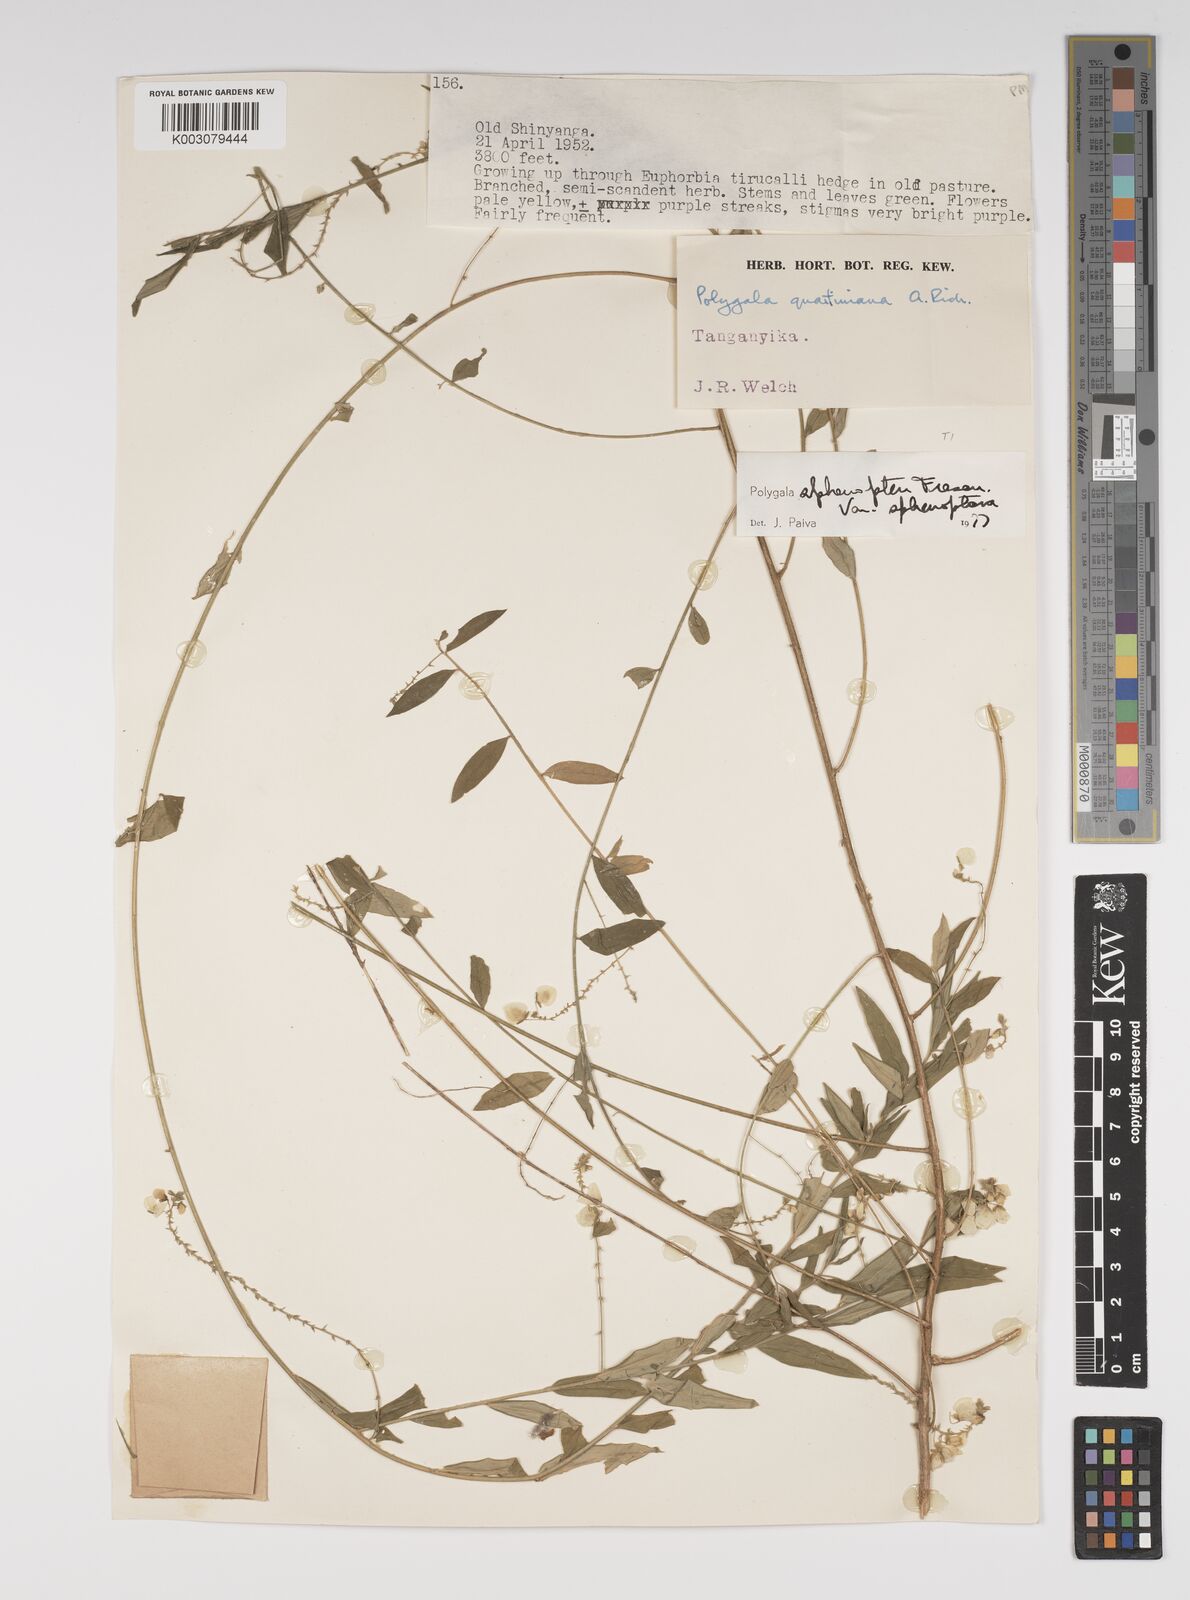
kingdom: Plantae
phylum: Tracheophyta
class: Magnoliopsida
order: Fabales
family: Polygalaceae
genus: Polygala
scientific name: Polygala sphenoptera
